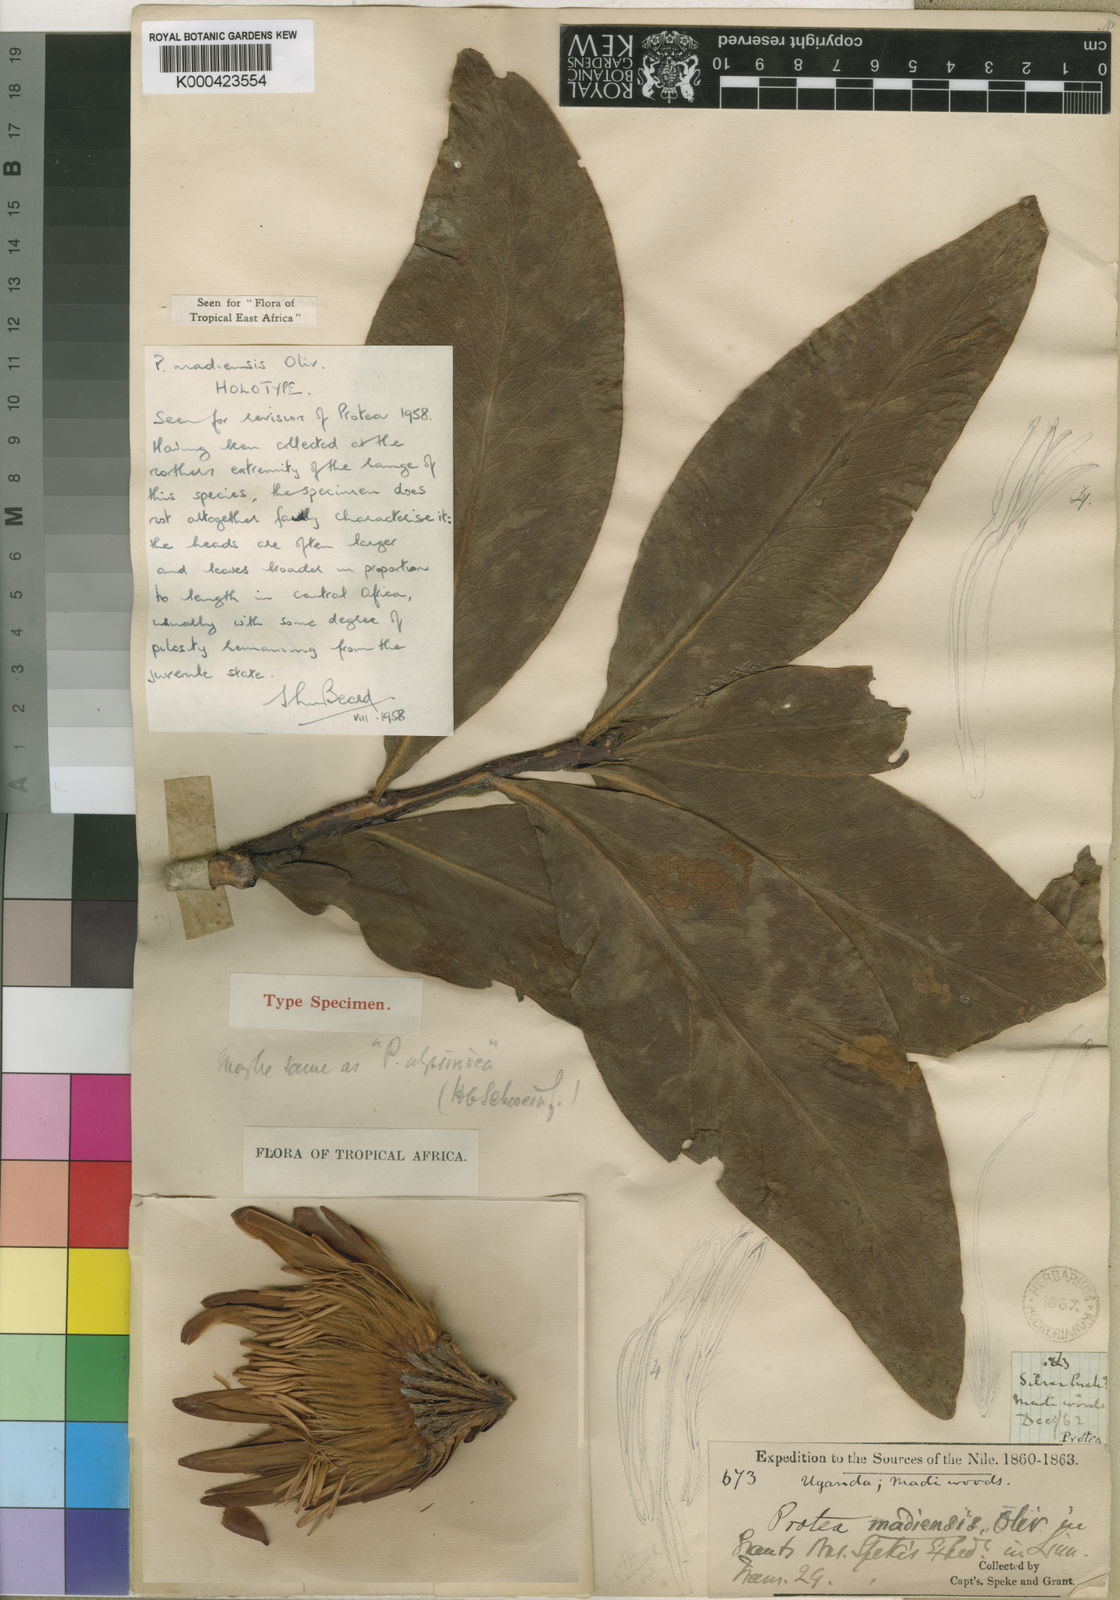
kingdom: Plantae
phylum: Tracheophyta
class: Magnoliopsida
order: Proteales
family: Proteaceae
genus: Protea
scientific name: Protea madiensis
